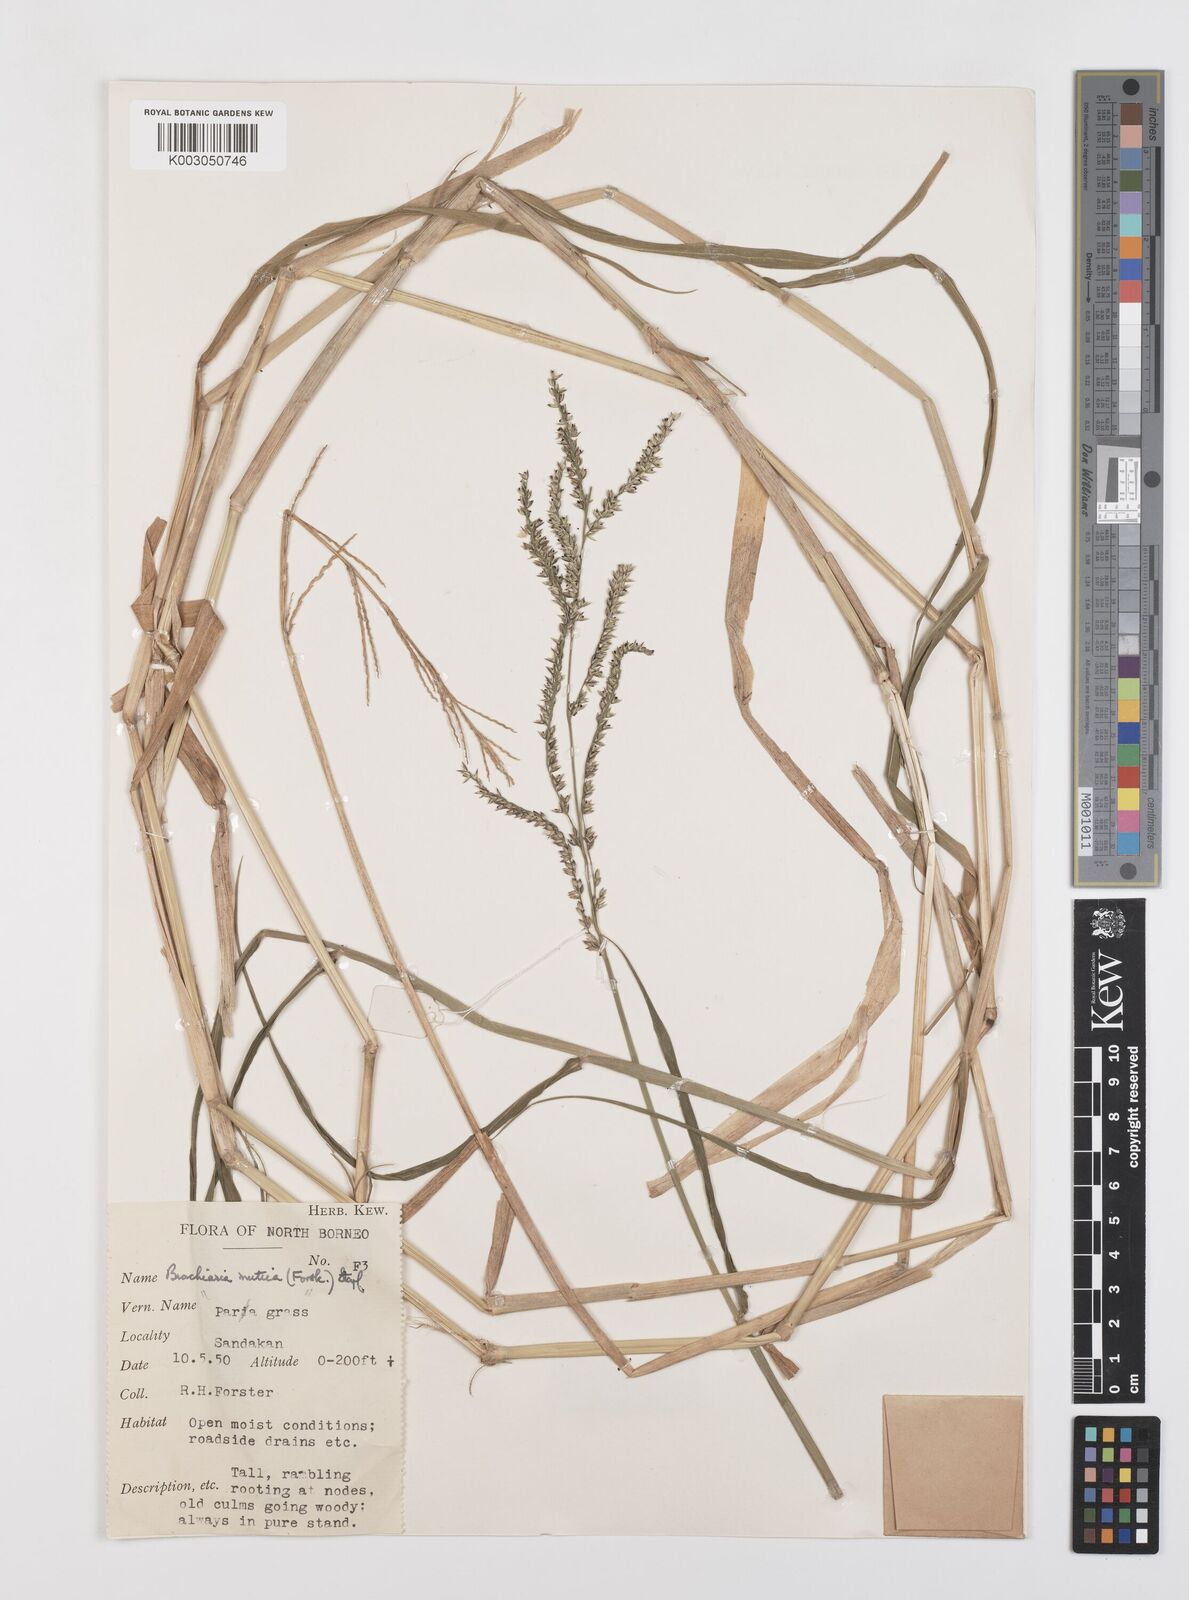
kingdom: Plantae
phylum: Tracheophyta
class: Liliopsida
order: Poales
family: Poaceae
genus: Urochloa
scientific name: Urochloa mutica
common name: Para grass
